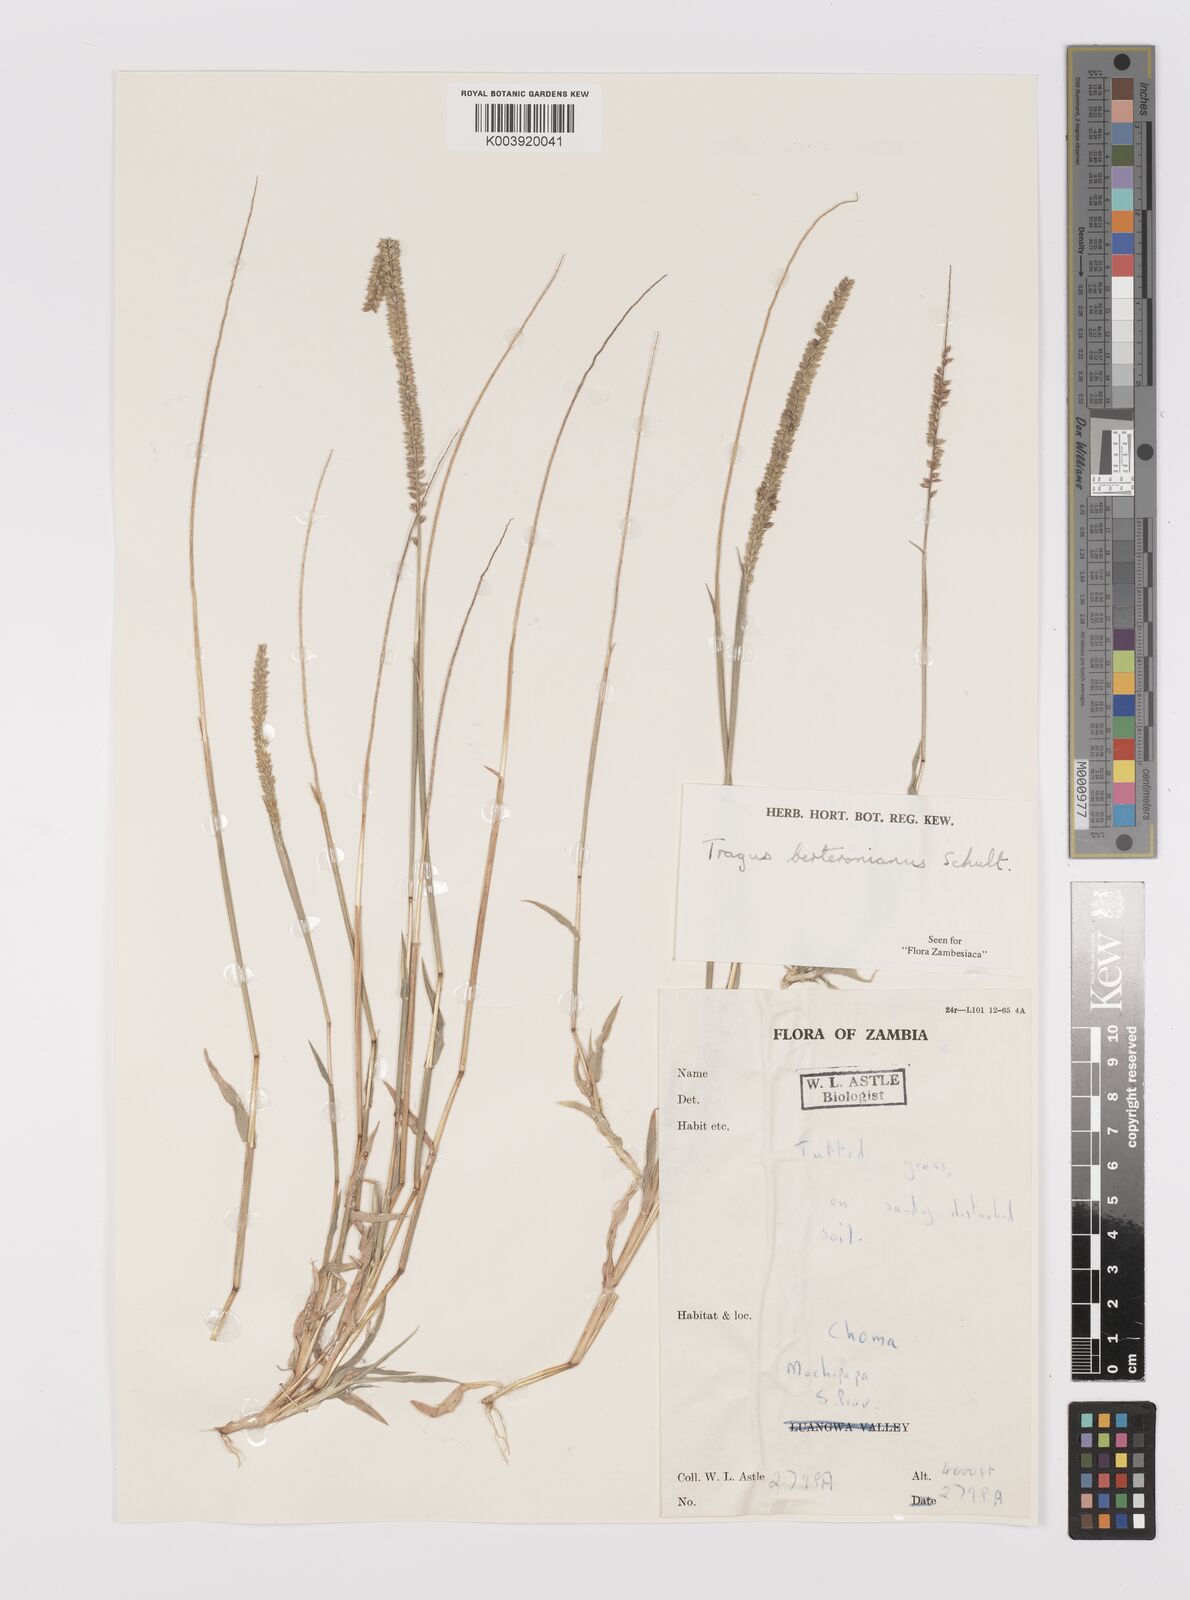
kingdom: Plantae
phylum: Tracheophyta
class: Liliopsida
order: Poales
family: Poaceae
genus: Tragus
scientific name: Tragus berteronianus
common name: African bur-grass
